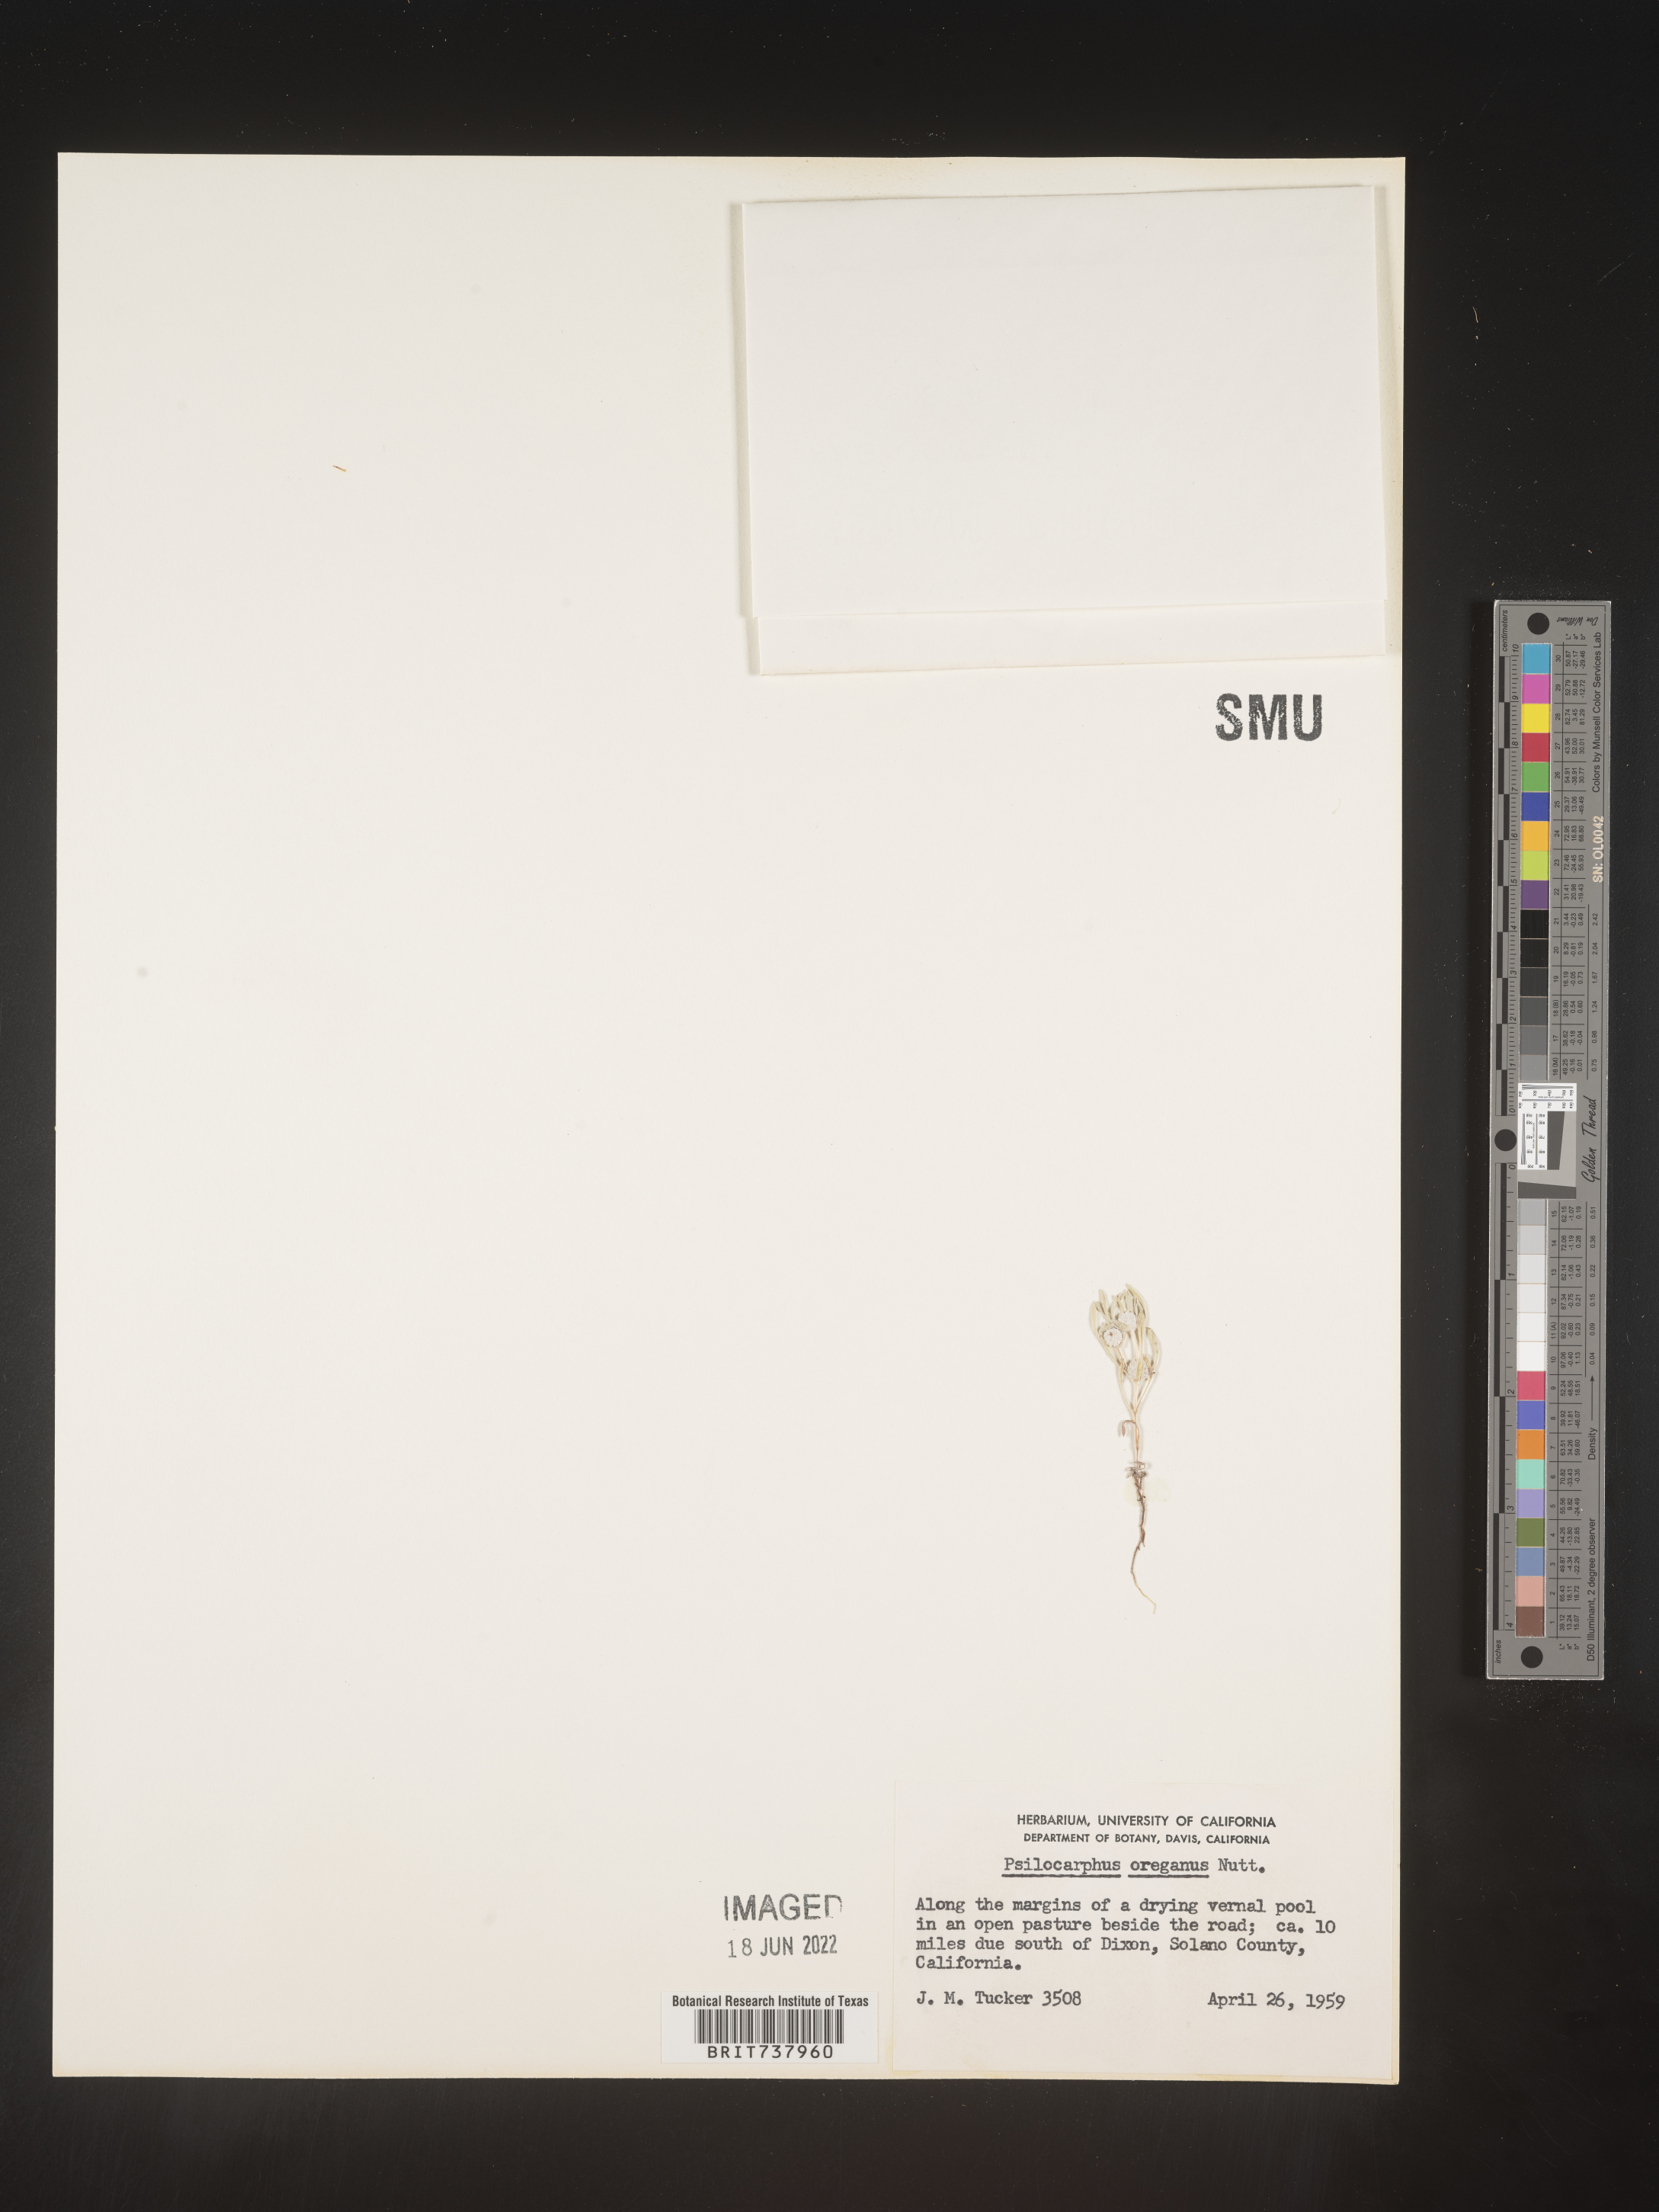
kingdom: Plantae
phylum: Tracheophyta
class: Magnoliopsida
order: Asterales
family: Asteraceae
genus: Psilocarphus
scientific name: Psilocarphus
